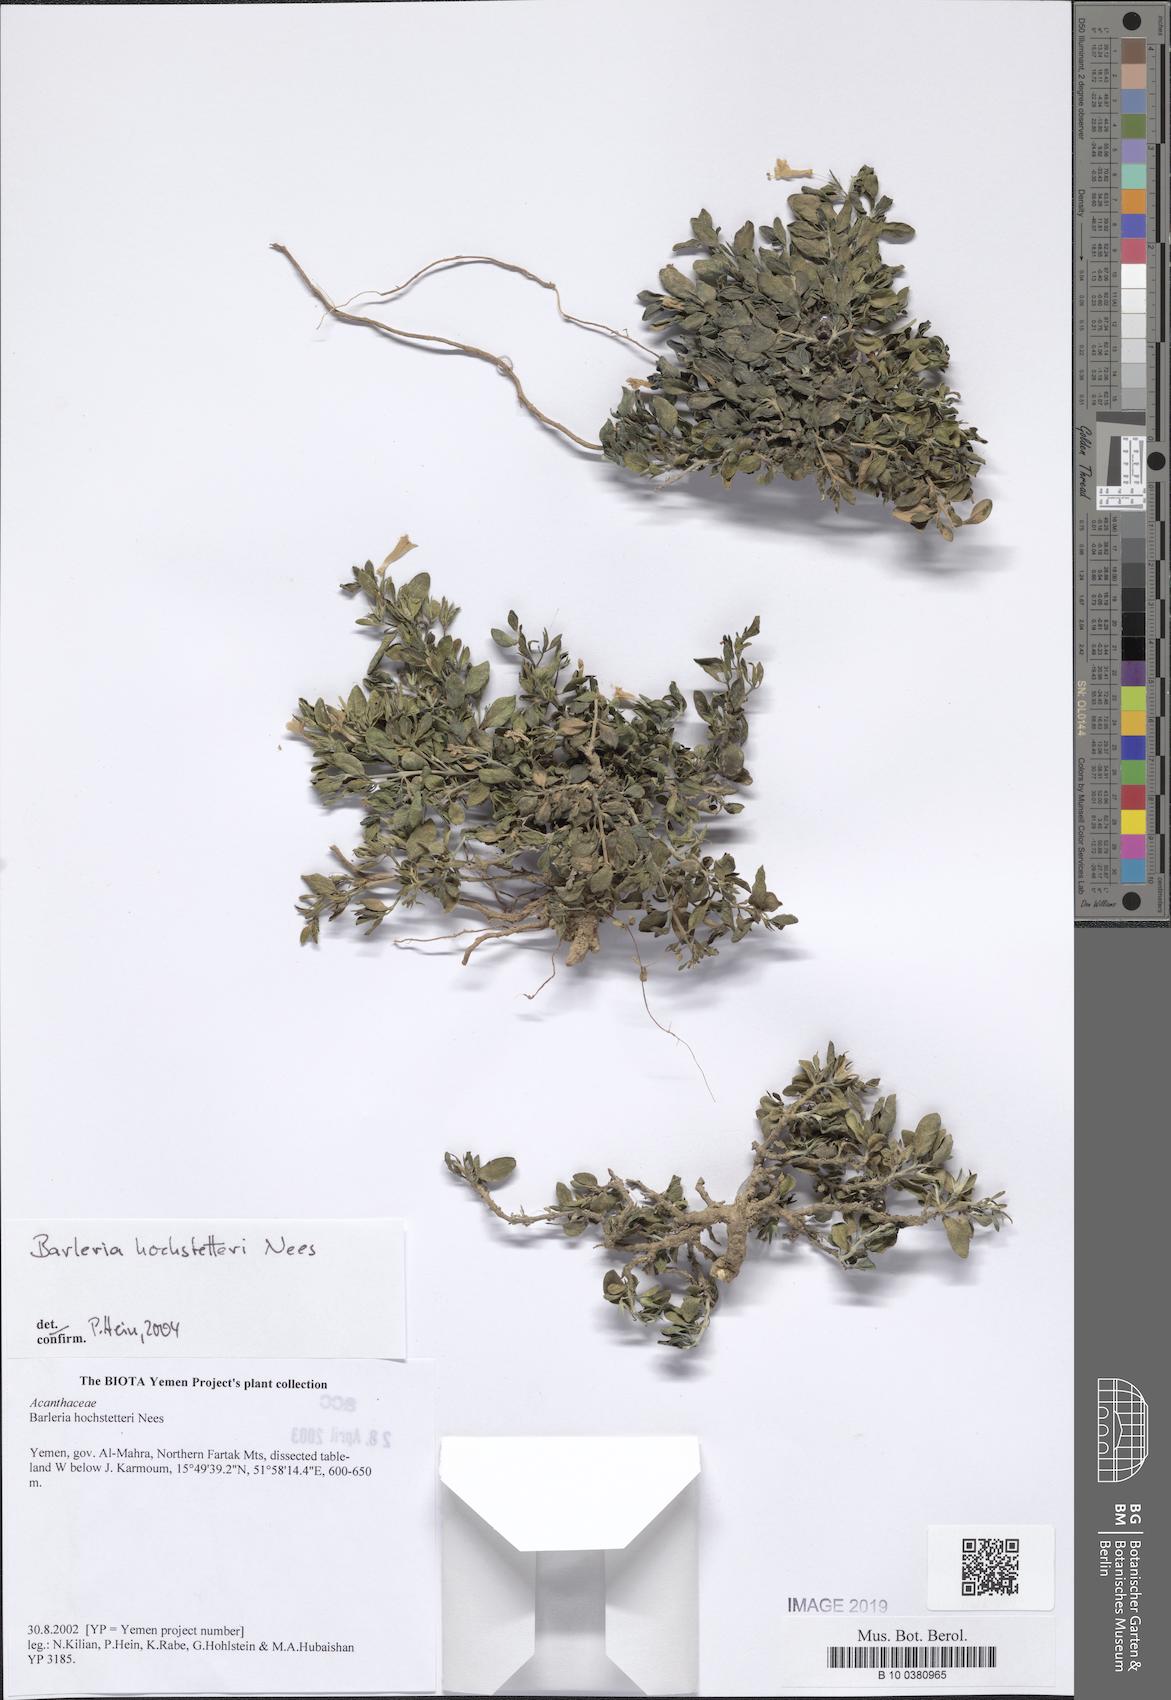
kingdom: Plantae
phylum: Tracheophyta
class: Magnoliopsida
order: Lamiales
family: Acanthaceae
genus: Barleria
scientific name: Barleria hochstetteri
